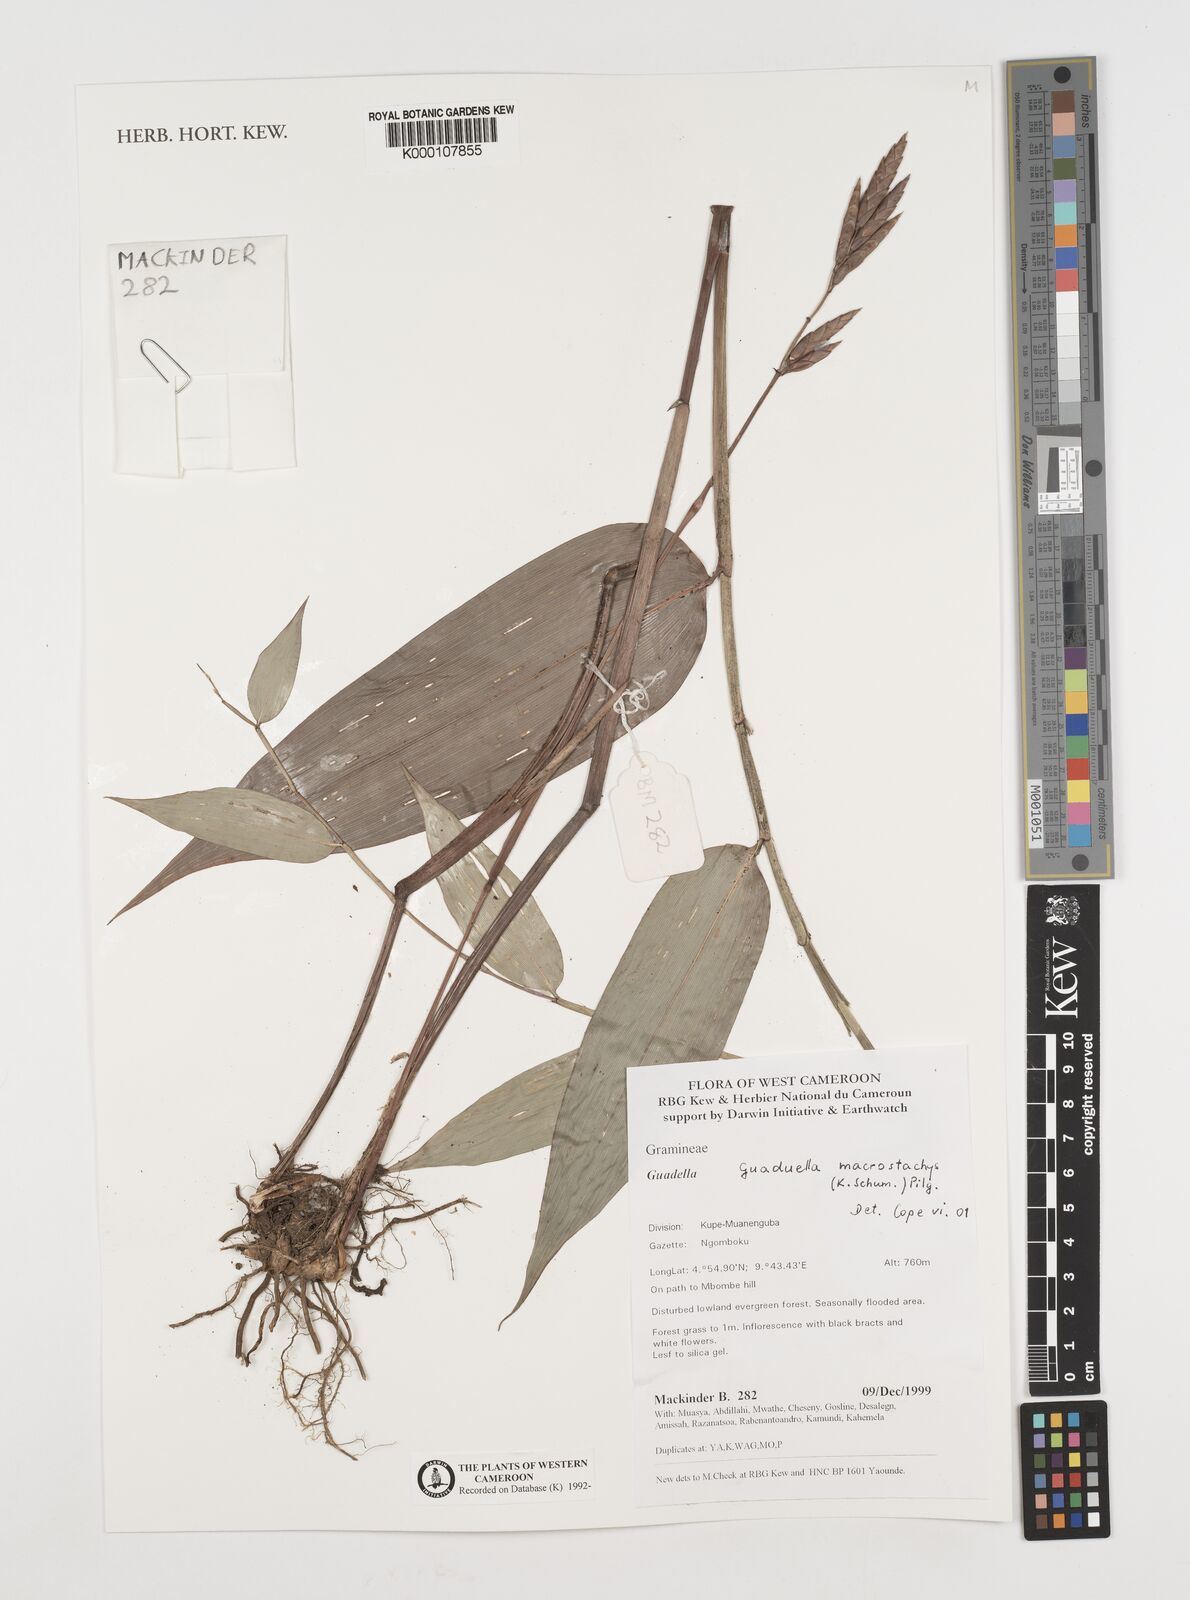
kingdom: Plantae
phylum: Tracheophyta
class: Liliopsida
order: Poales
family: Poaceae
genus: Guaduella
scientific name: Guaduella macrostachys
